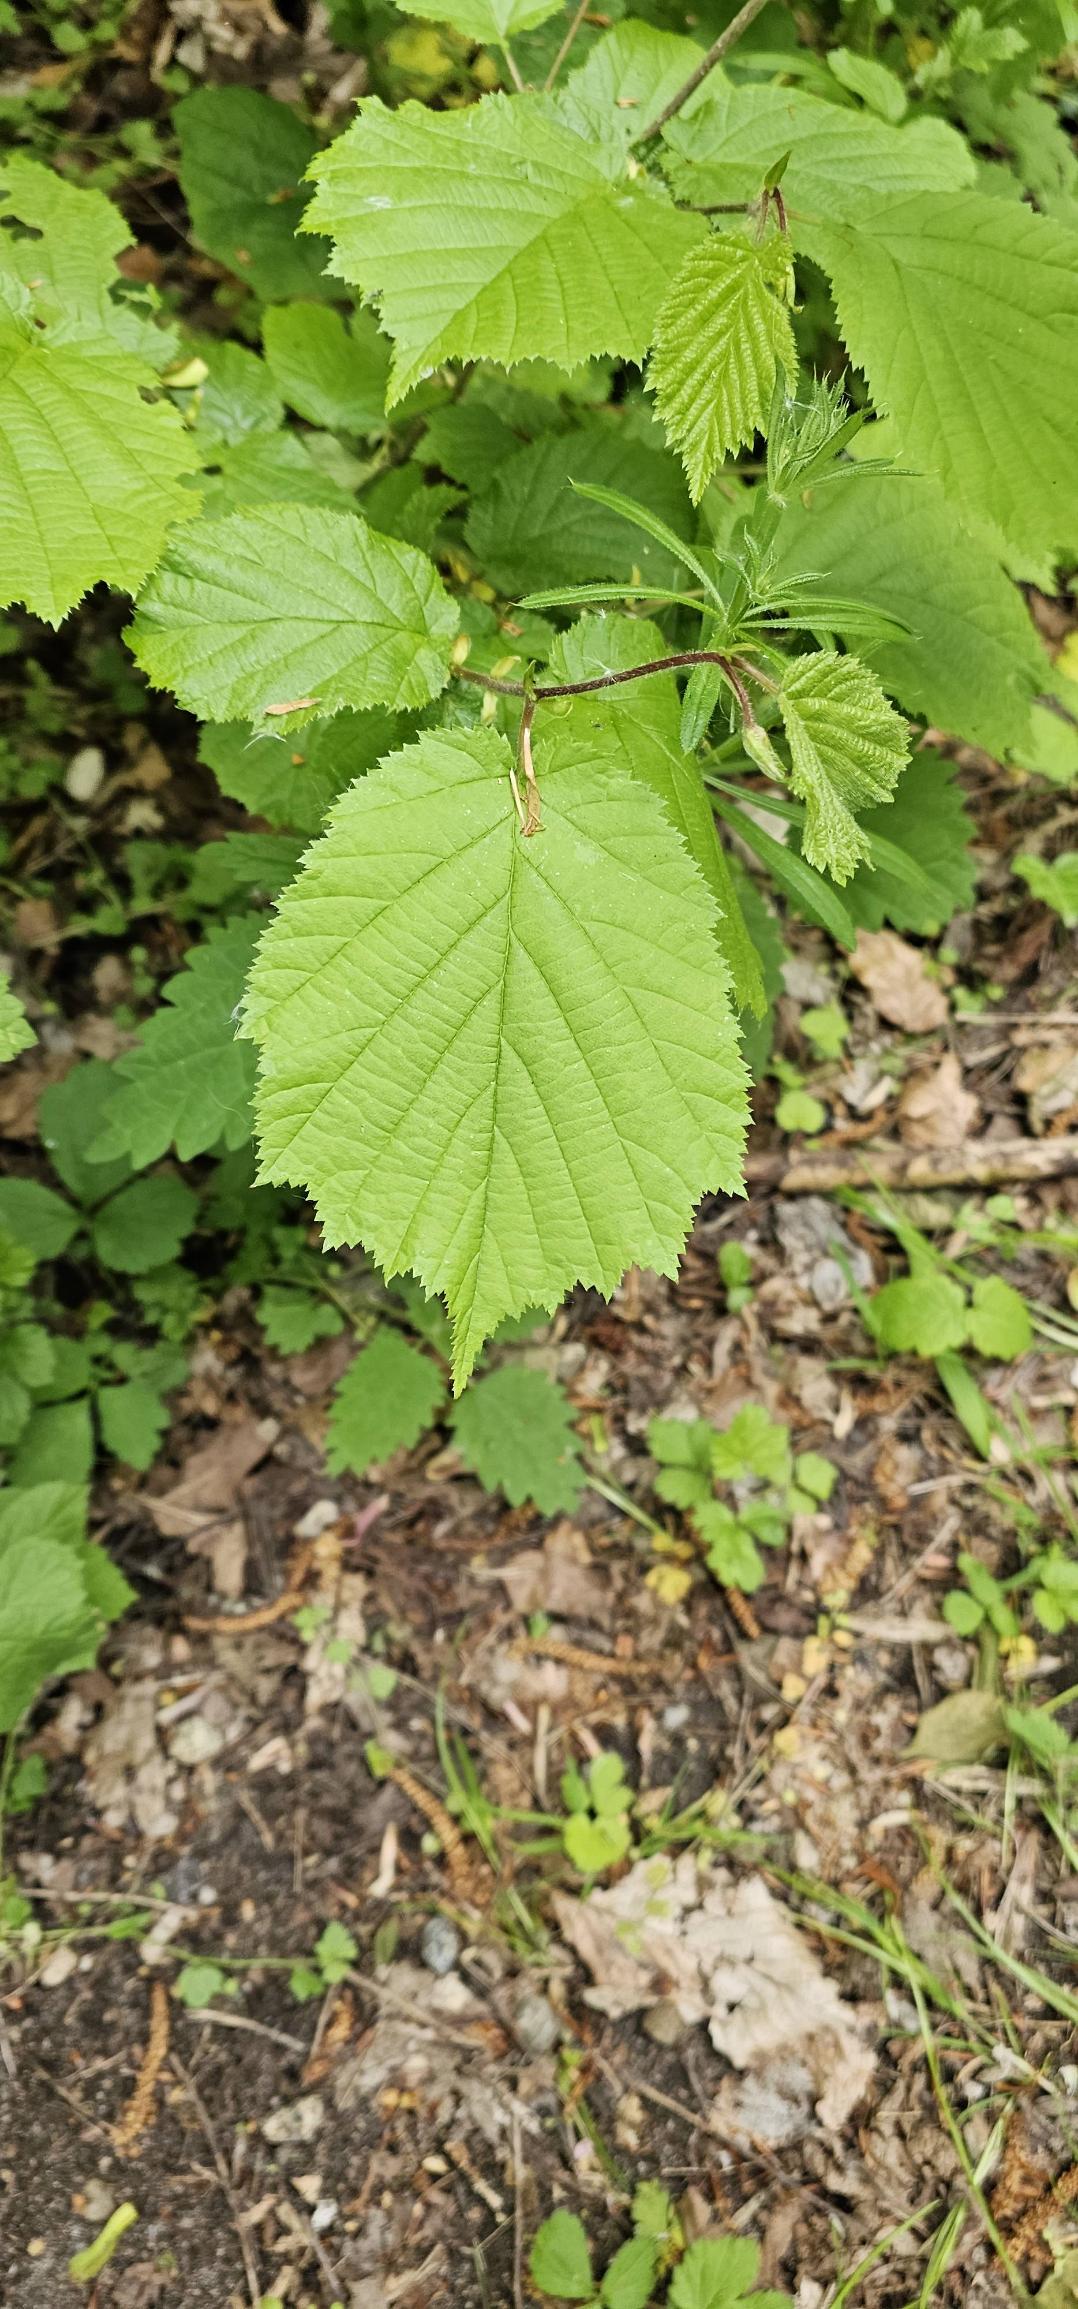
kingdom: Plantae
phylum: Tracheophyta
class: Magnoliopsida
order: Fagales
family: Betulaceae
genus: Corylus
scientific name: Corylus avellana
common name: Hassel
